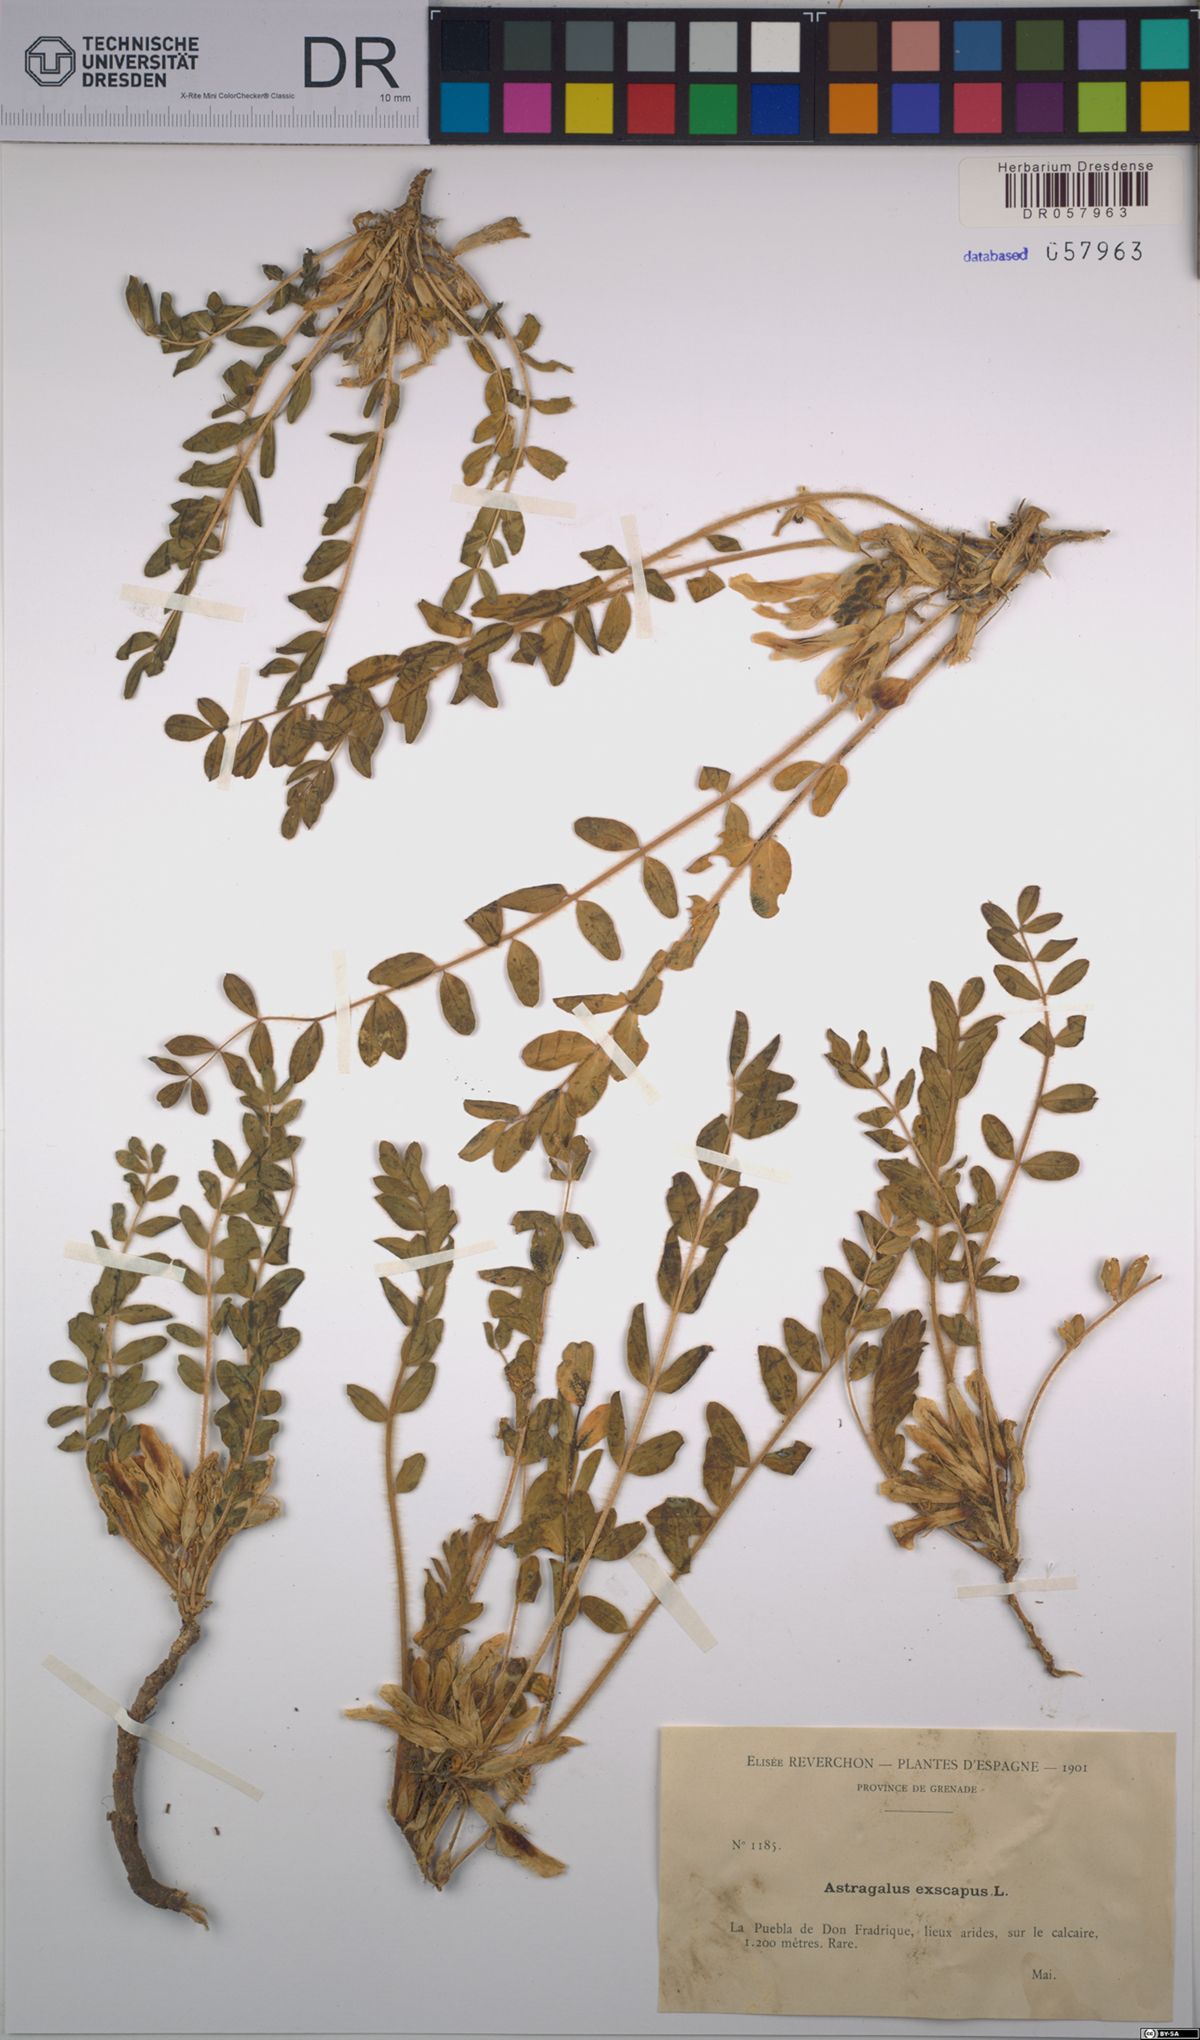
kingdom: Plantae
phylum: Tracheophyta
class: Magnoliopsida
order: Fabales
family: Fabaceae
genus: Astragalus
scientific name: Astragalus exscapus
